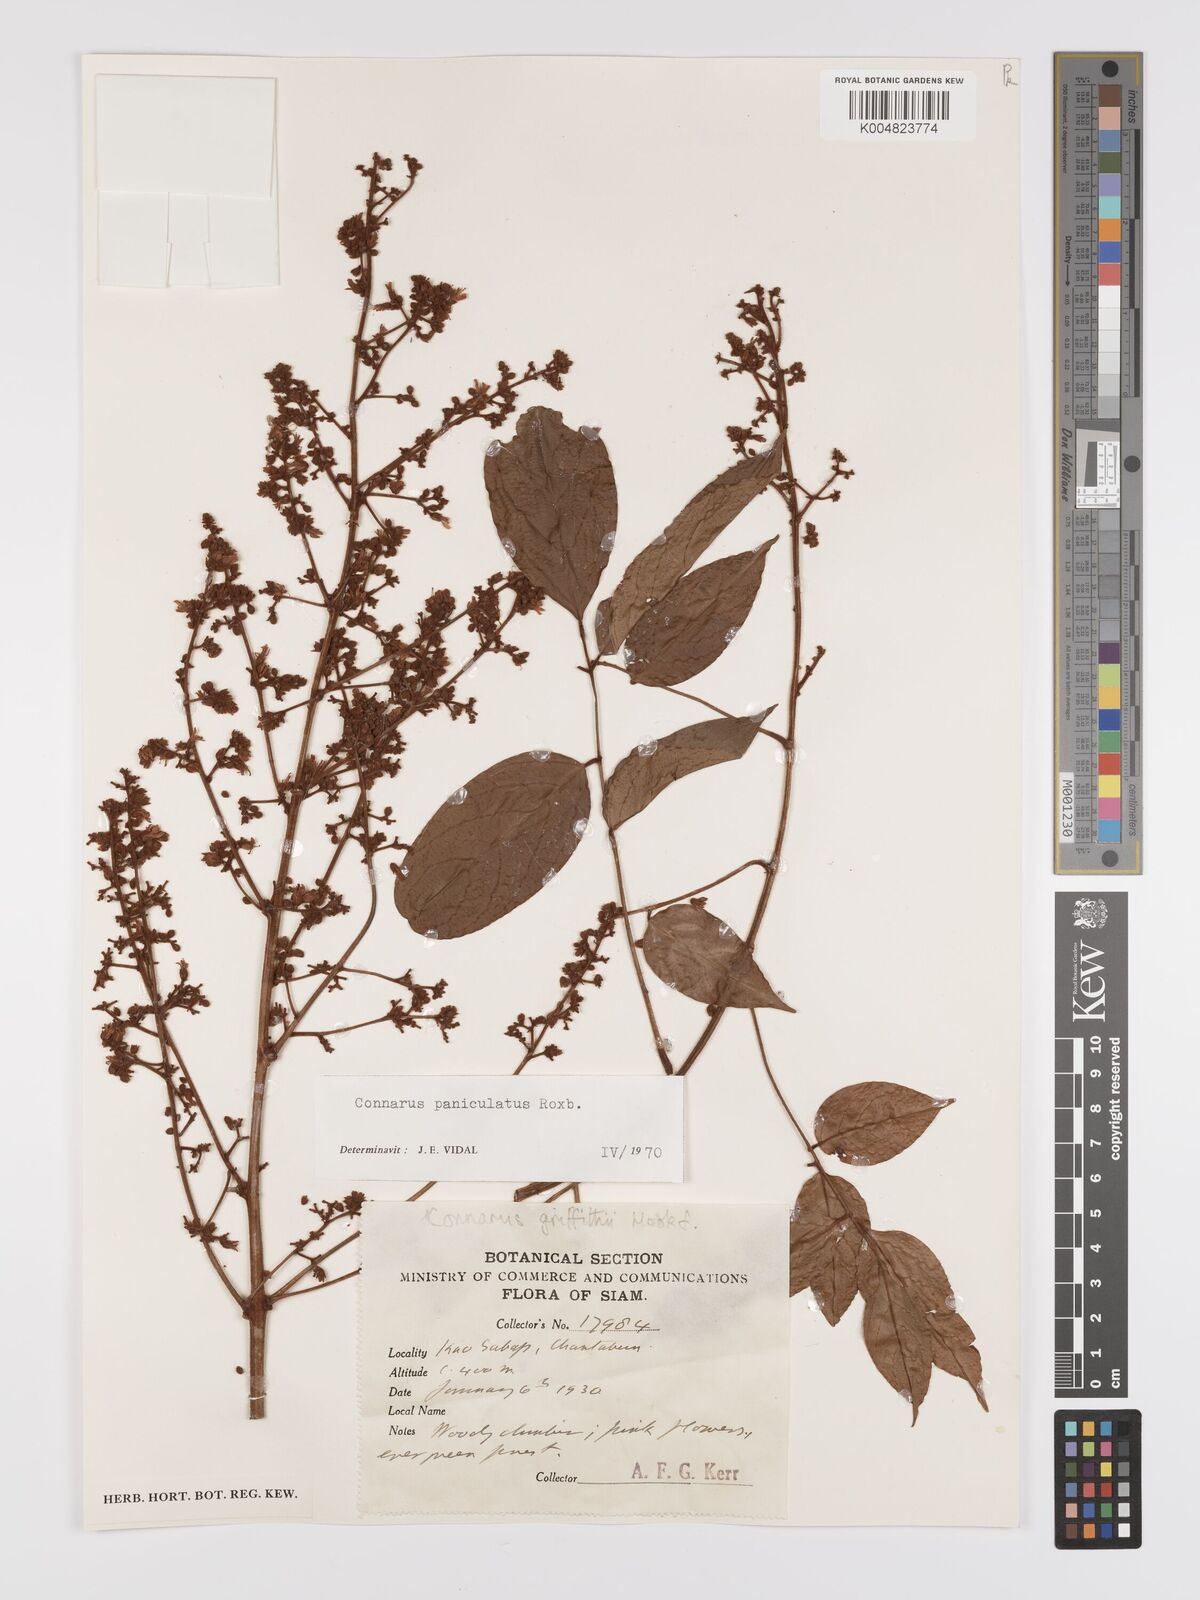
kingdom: Plantae
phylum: Tracheophyta
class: Magnoliopsida
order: Oxalidales
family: Connaraceae
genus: Connarus
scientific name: Connarus paniculatus
